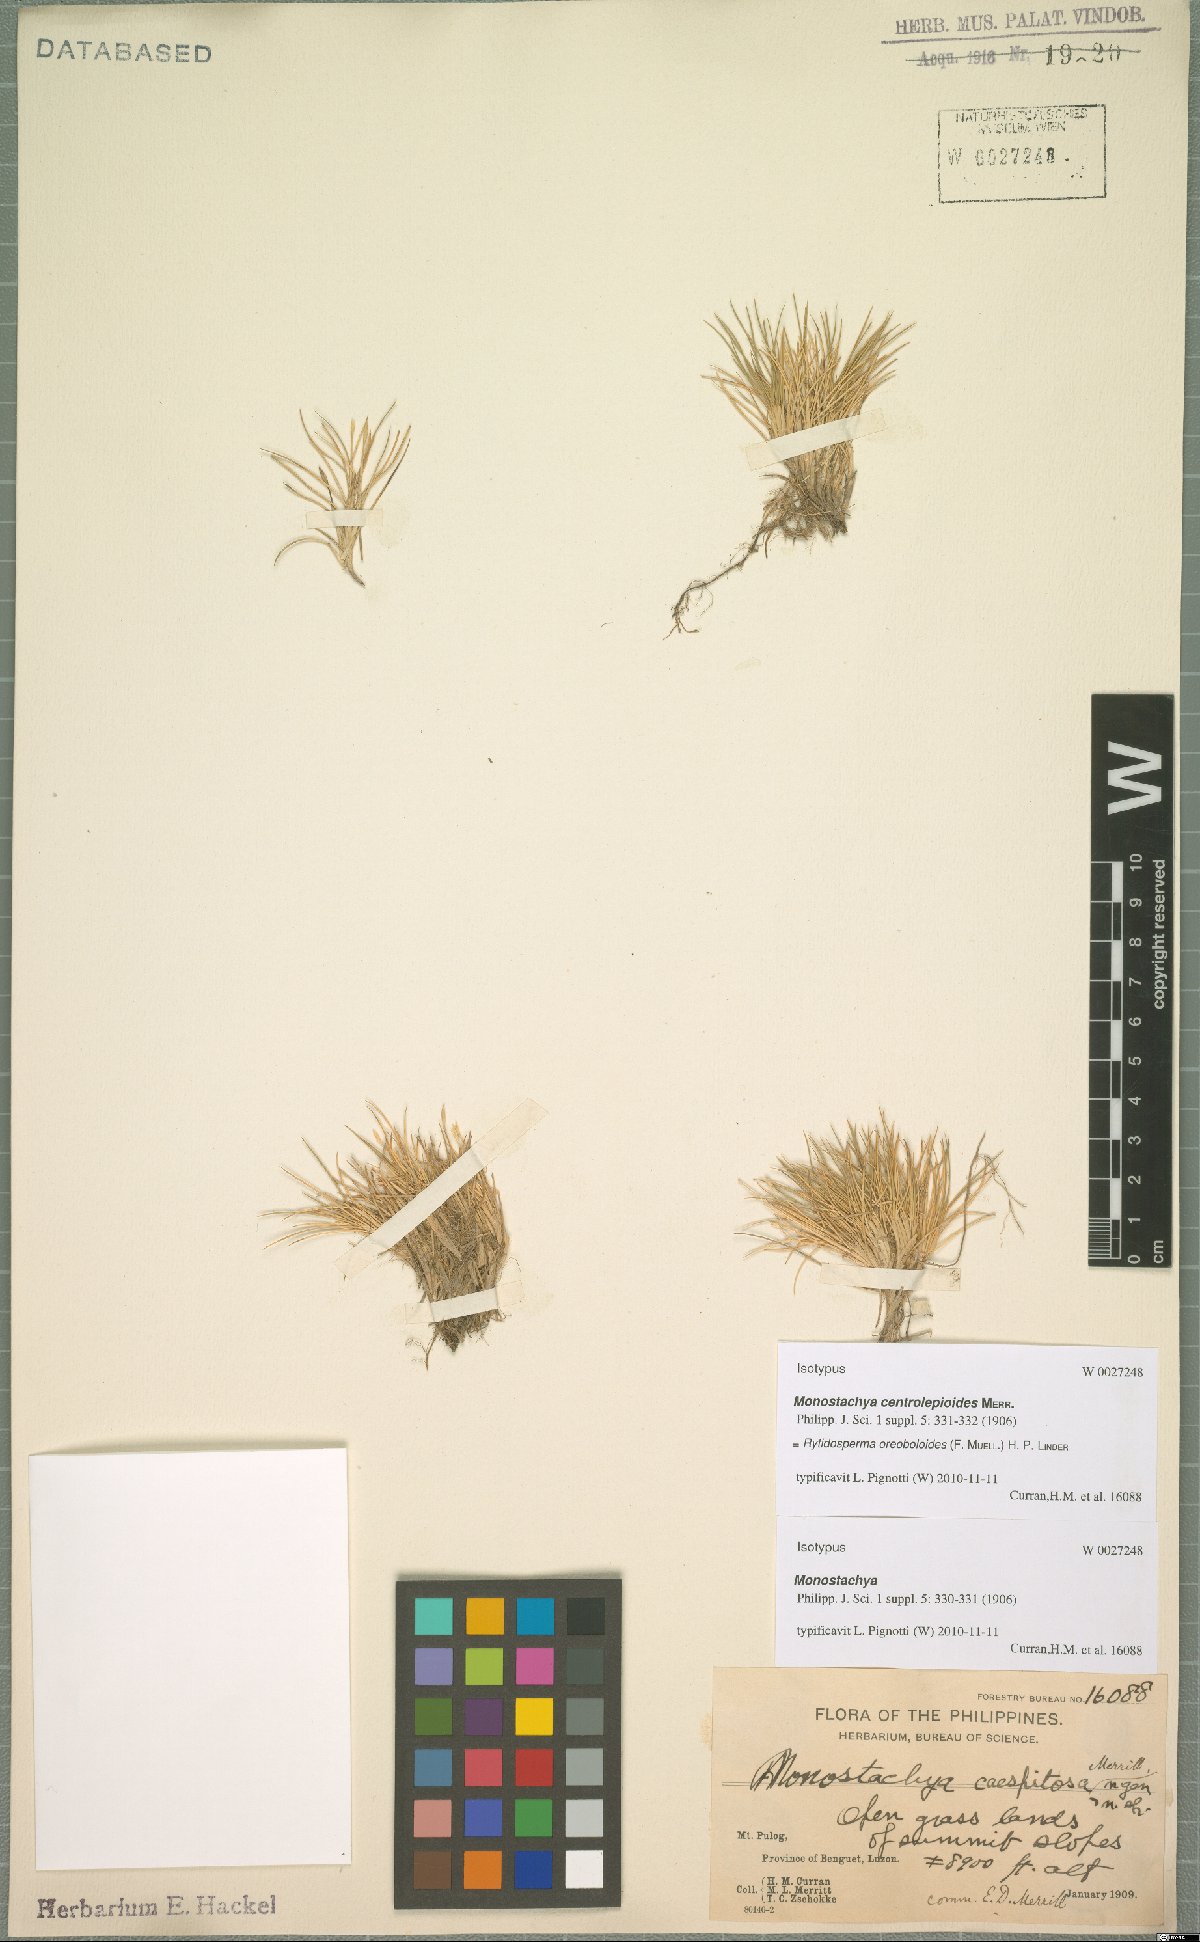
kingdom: Plantae
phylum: Tracheophyta
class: Liliopsida
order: Poales
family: Poaceae
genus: Rytidosperma
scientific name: Rytidosperma oreoboloides
